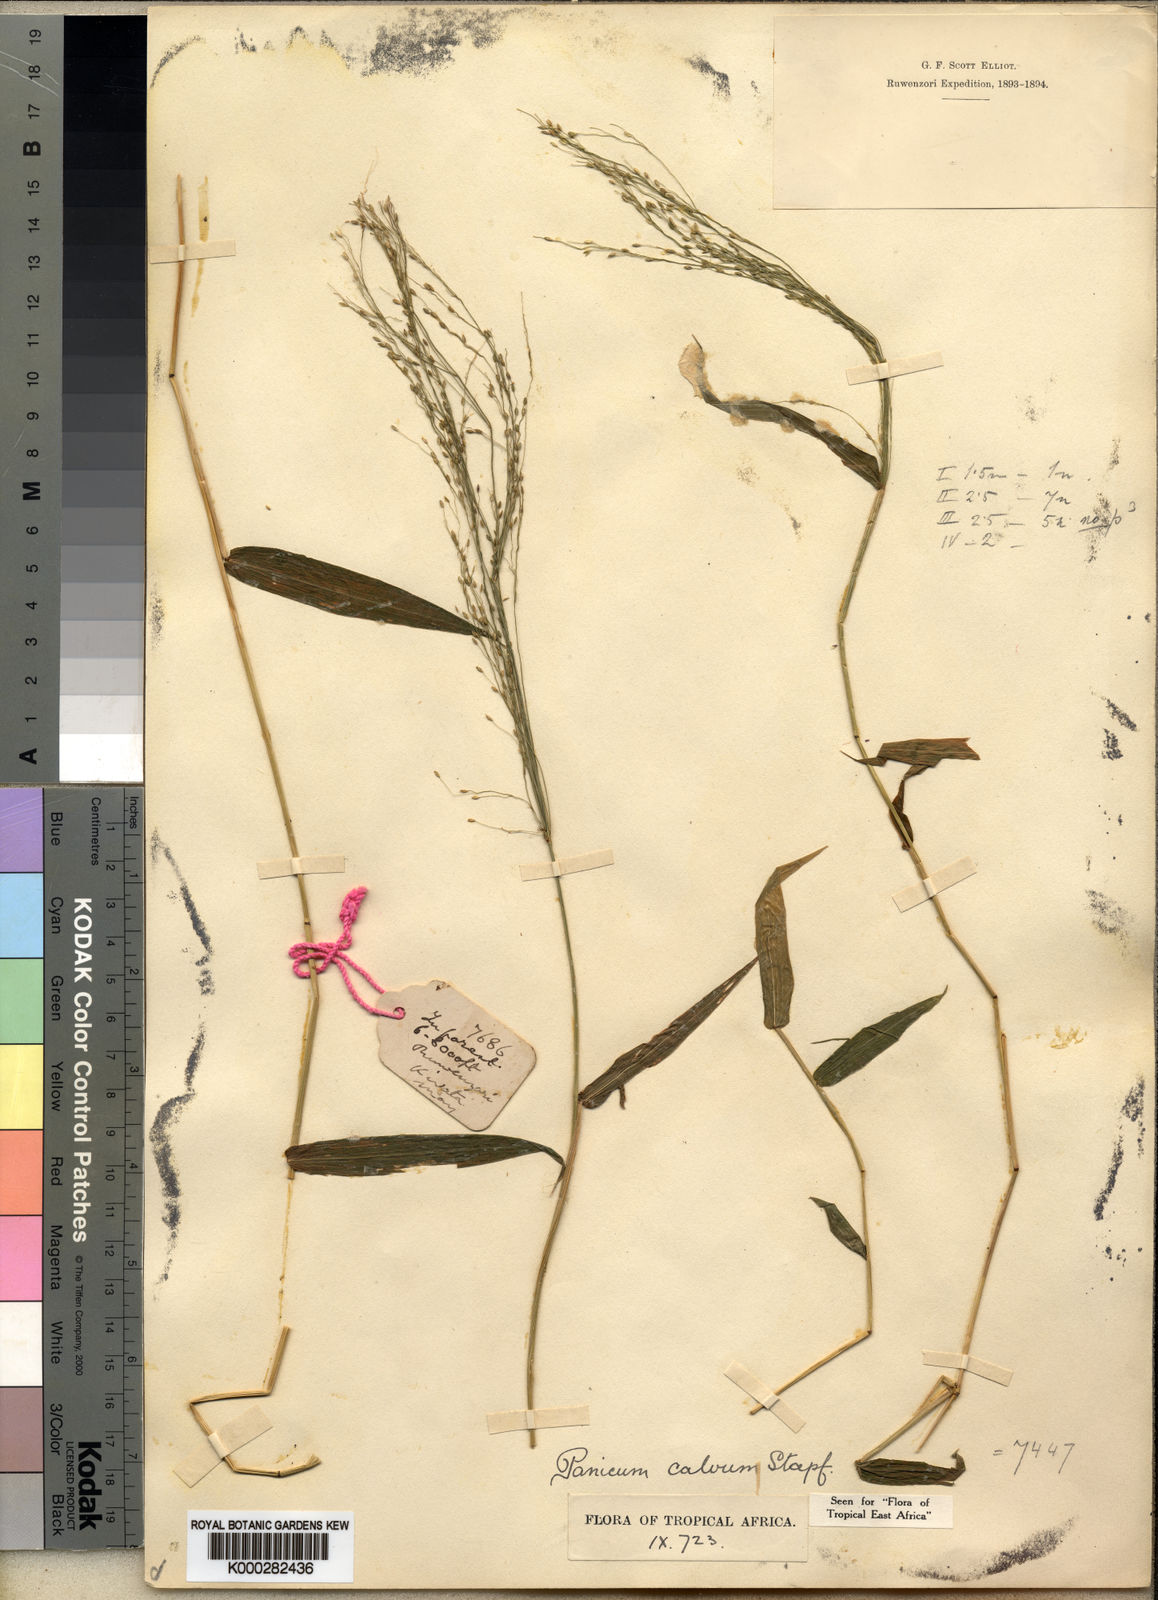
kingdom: Plantae
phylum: Tracheophyta
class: Liliopsida
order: Poales
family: Poaceae
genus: Panicum
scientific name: Panicum calvum
